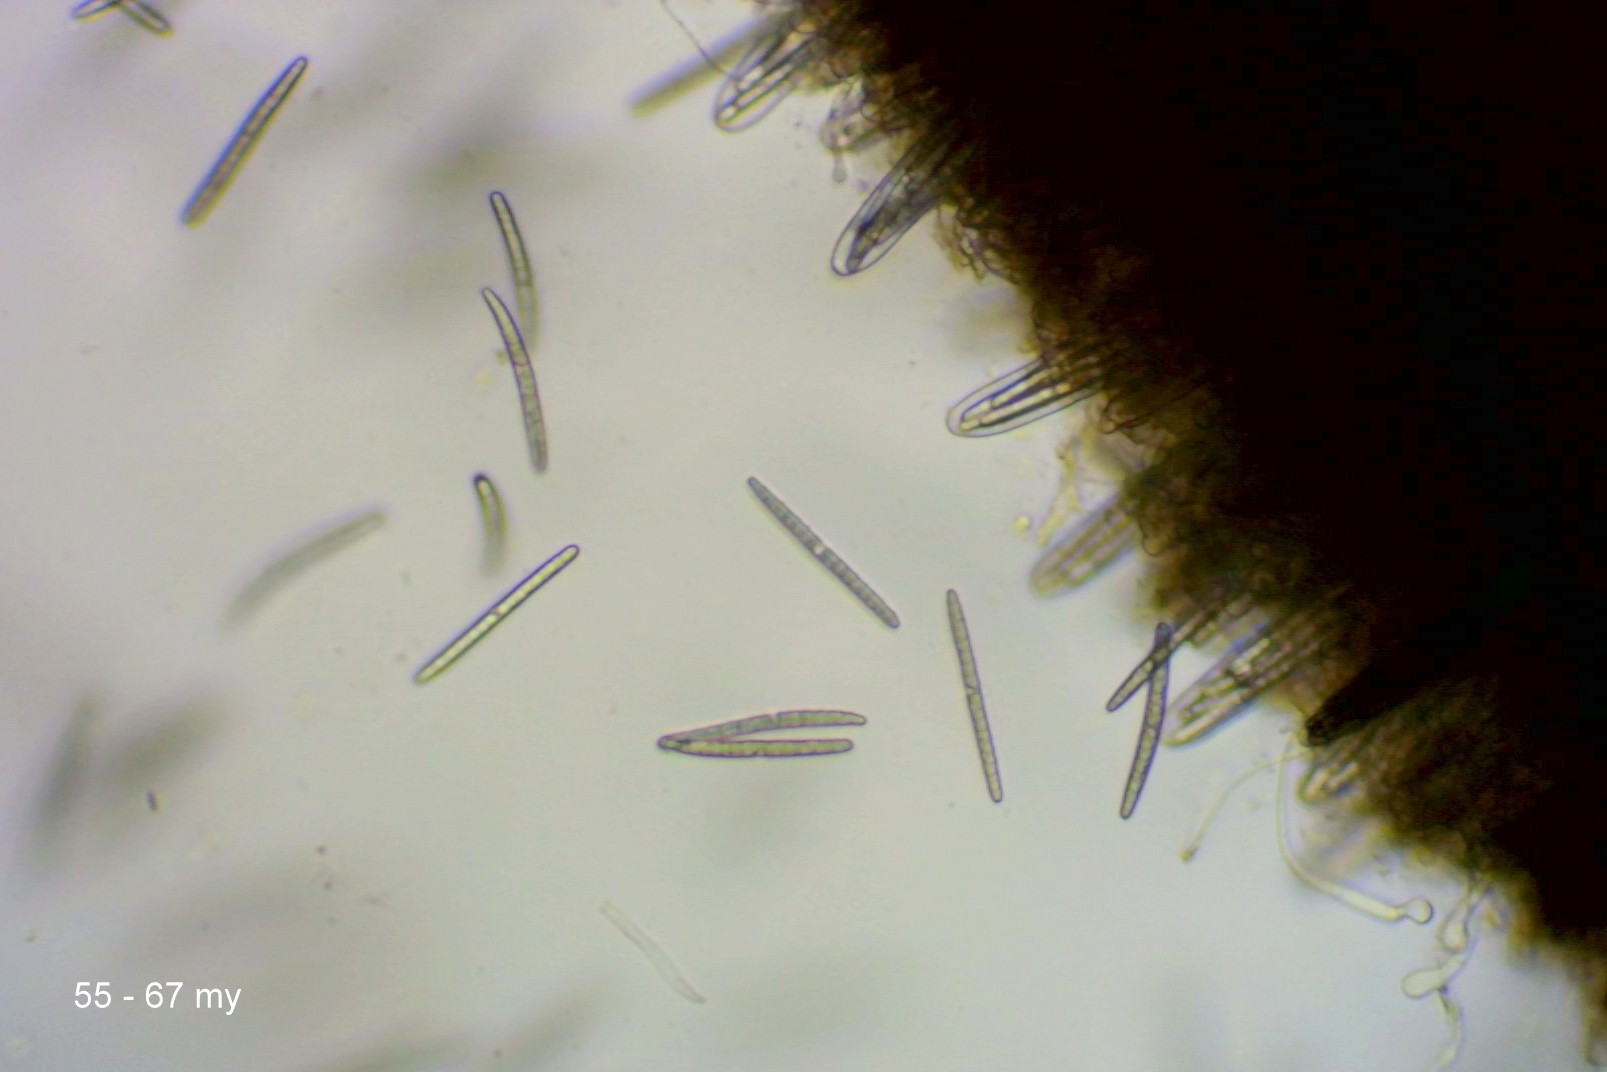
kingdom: Fungi
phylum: Ascomycota
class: Geoglossomycetes
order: Geoglossales
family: Geoglossaceae
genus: Hemileucoglossum
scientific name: Hemileucoglossum elongatum
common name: småsporet jordtunge
